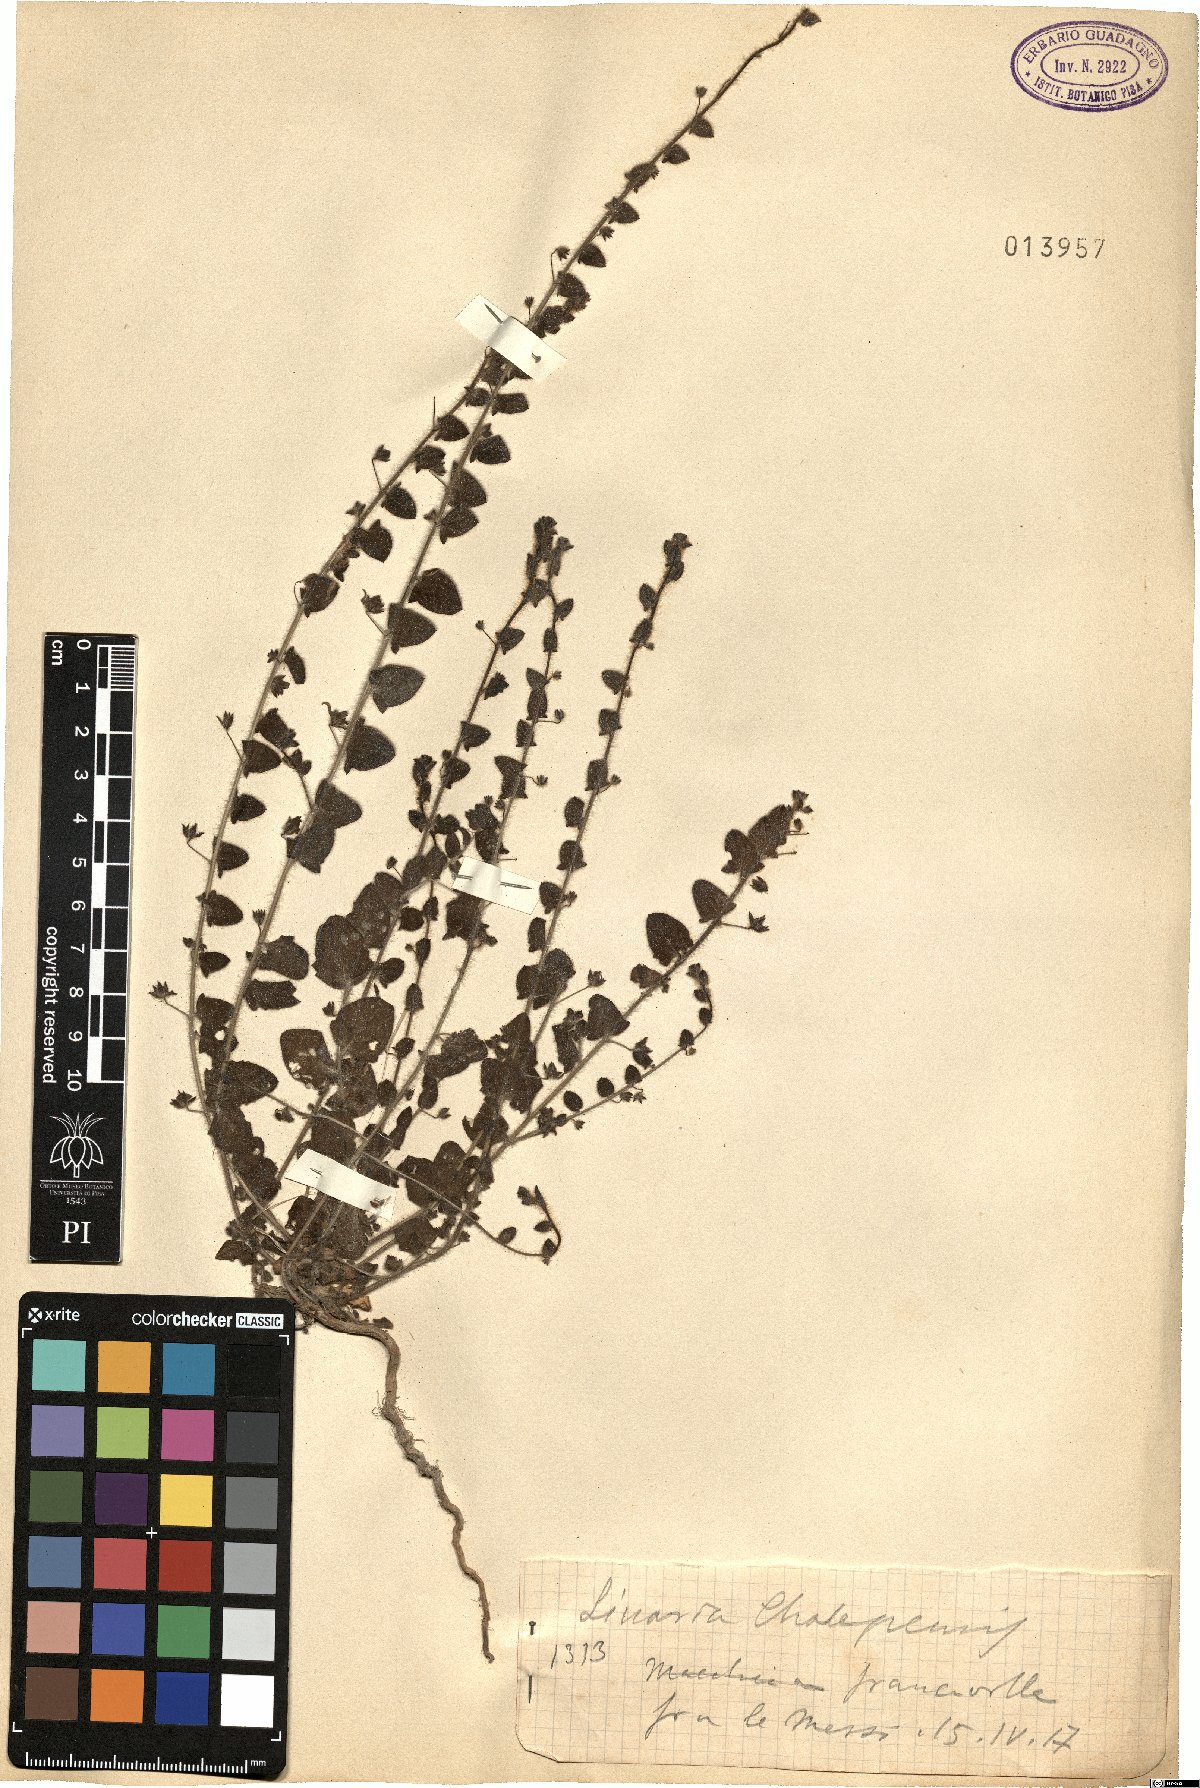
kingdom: Plantae
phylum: Tracheophyta
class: Magnoliopsida
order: Lamiales
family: Plantaginaceae
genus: Linaria
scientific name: Linaria chalepensis
